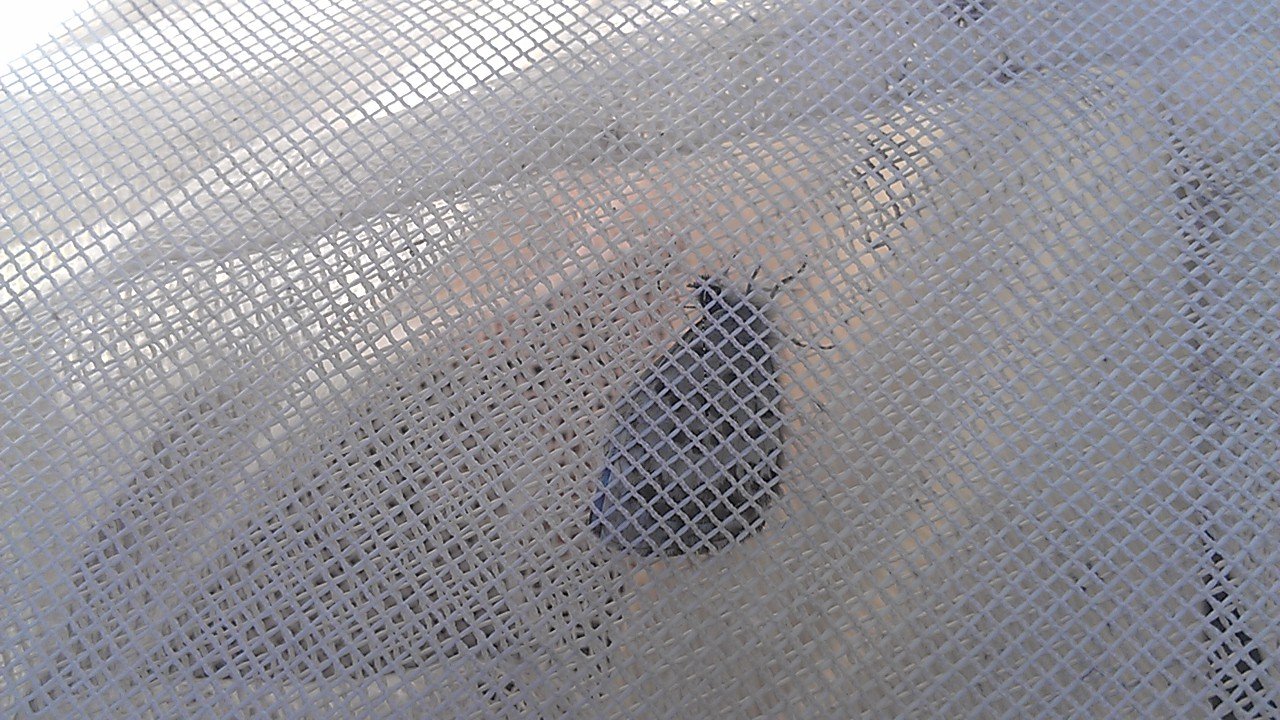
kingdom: Animalia
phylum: Arthropoda
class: Insecta
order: Lepidoptera
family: Lycaenidae
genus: Celastrina
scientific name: Celastrina lucia
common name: Northern Spring Azure
